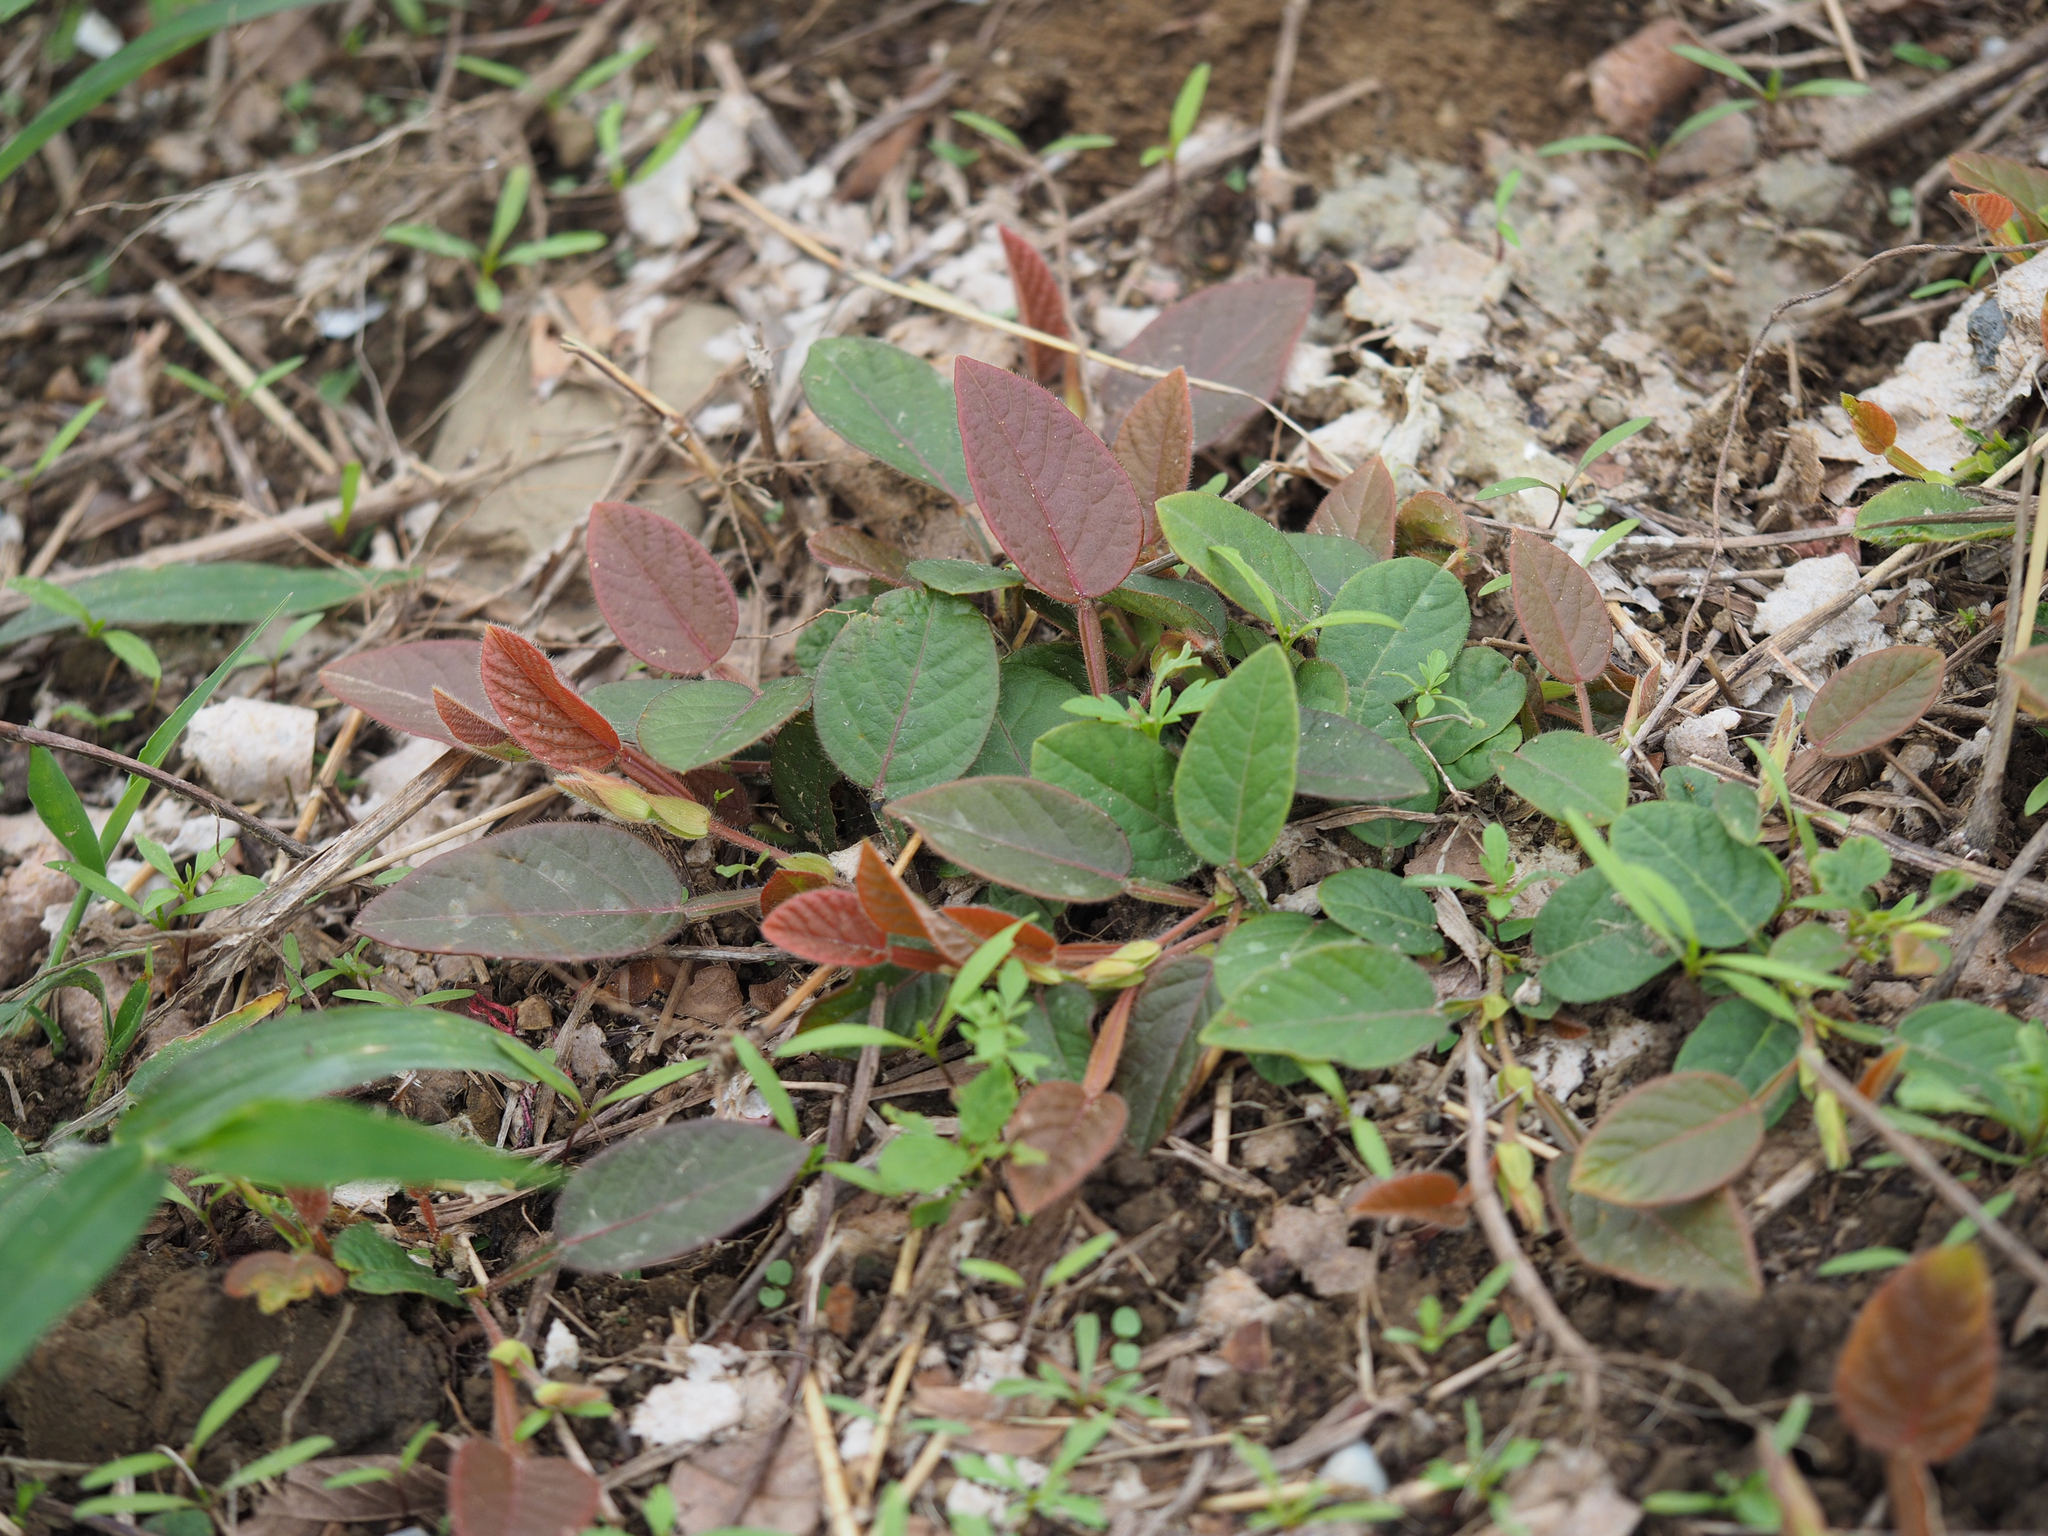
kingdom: Plantae
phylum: Tracheophyta
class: Magnoliopsida
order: Fabales
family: Fabaceae
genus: Tadehagi
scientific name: Tadehagi pseudotriquetrum
